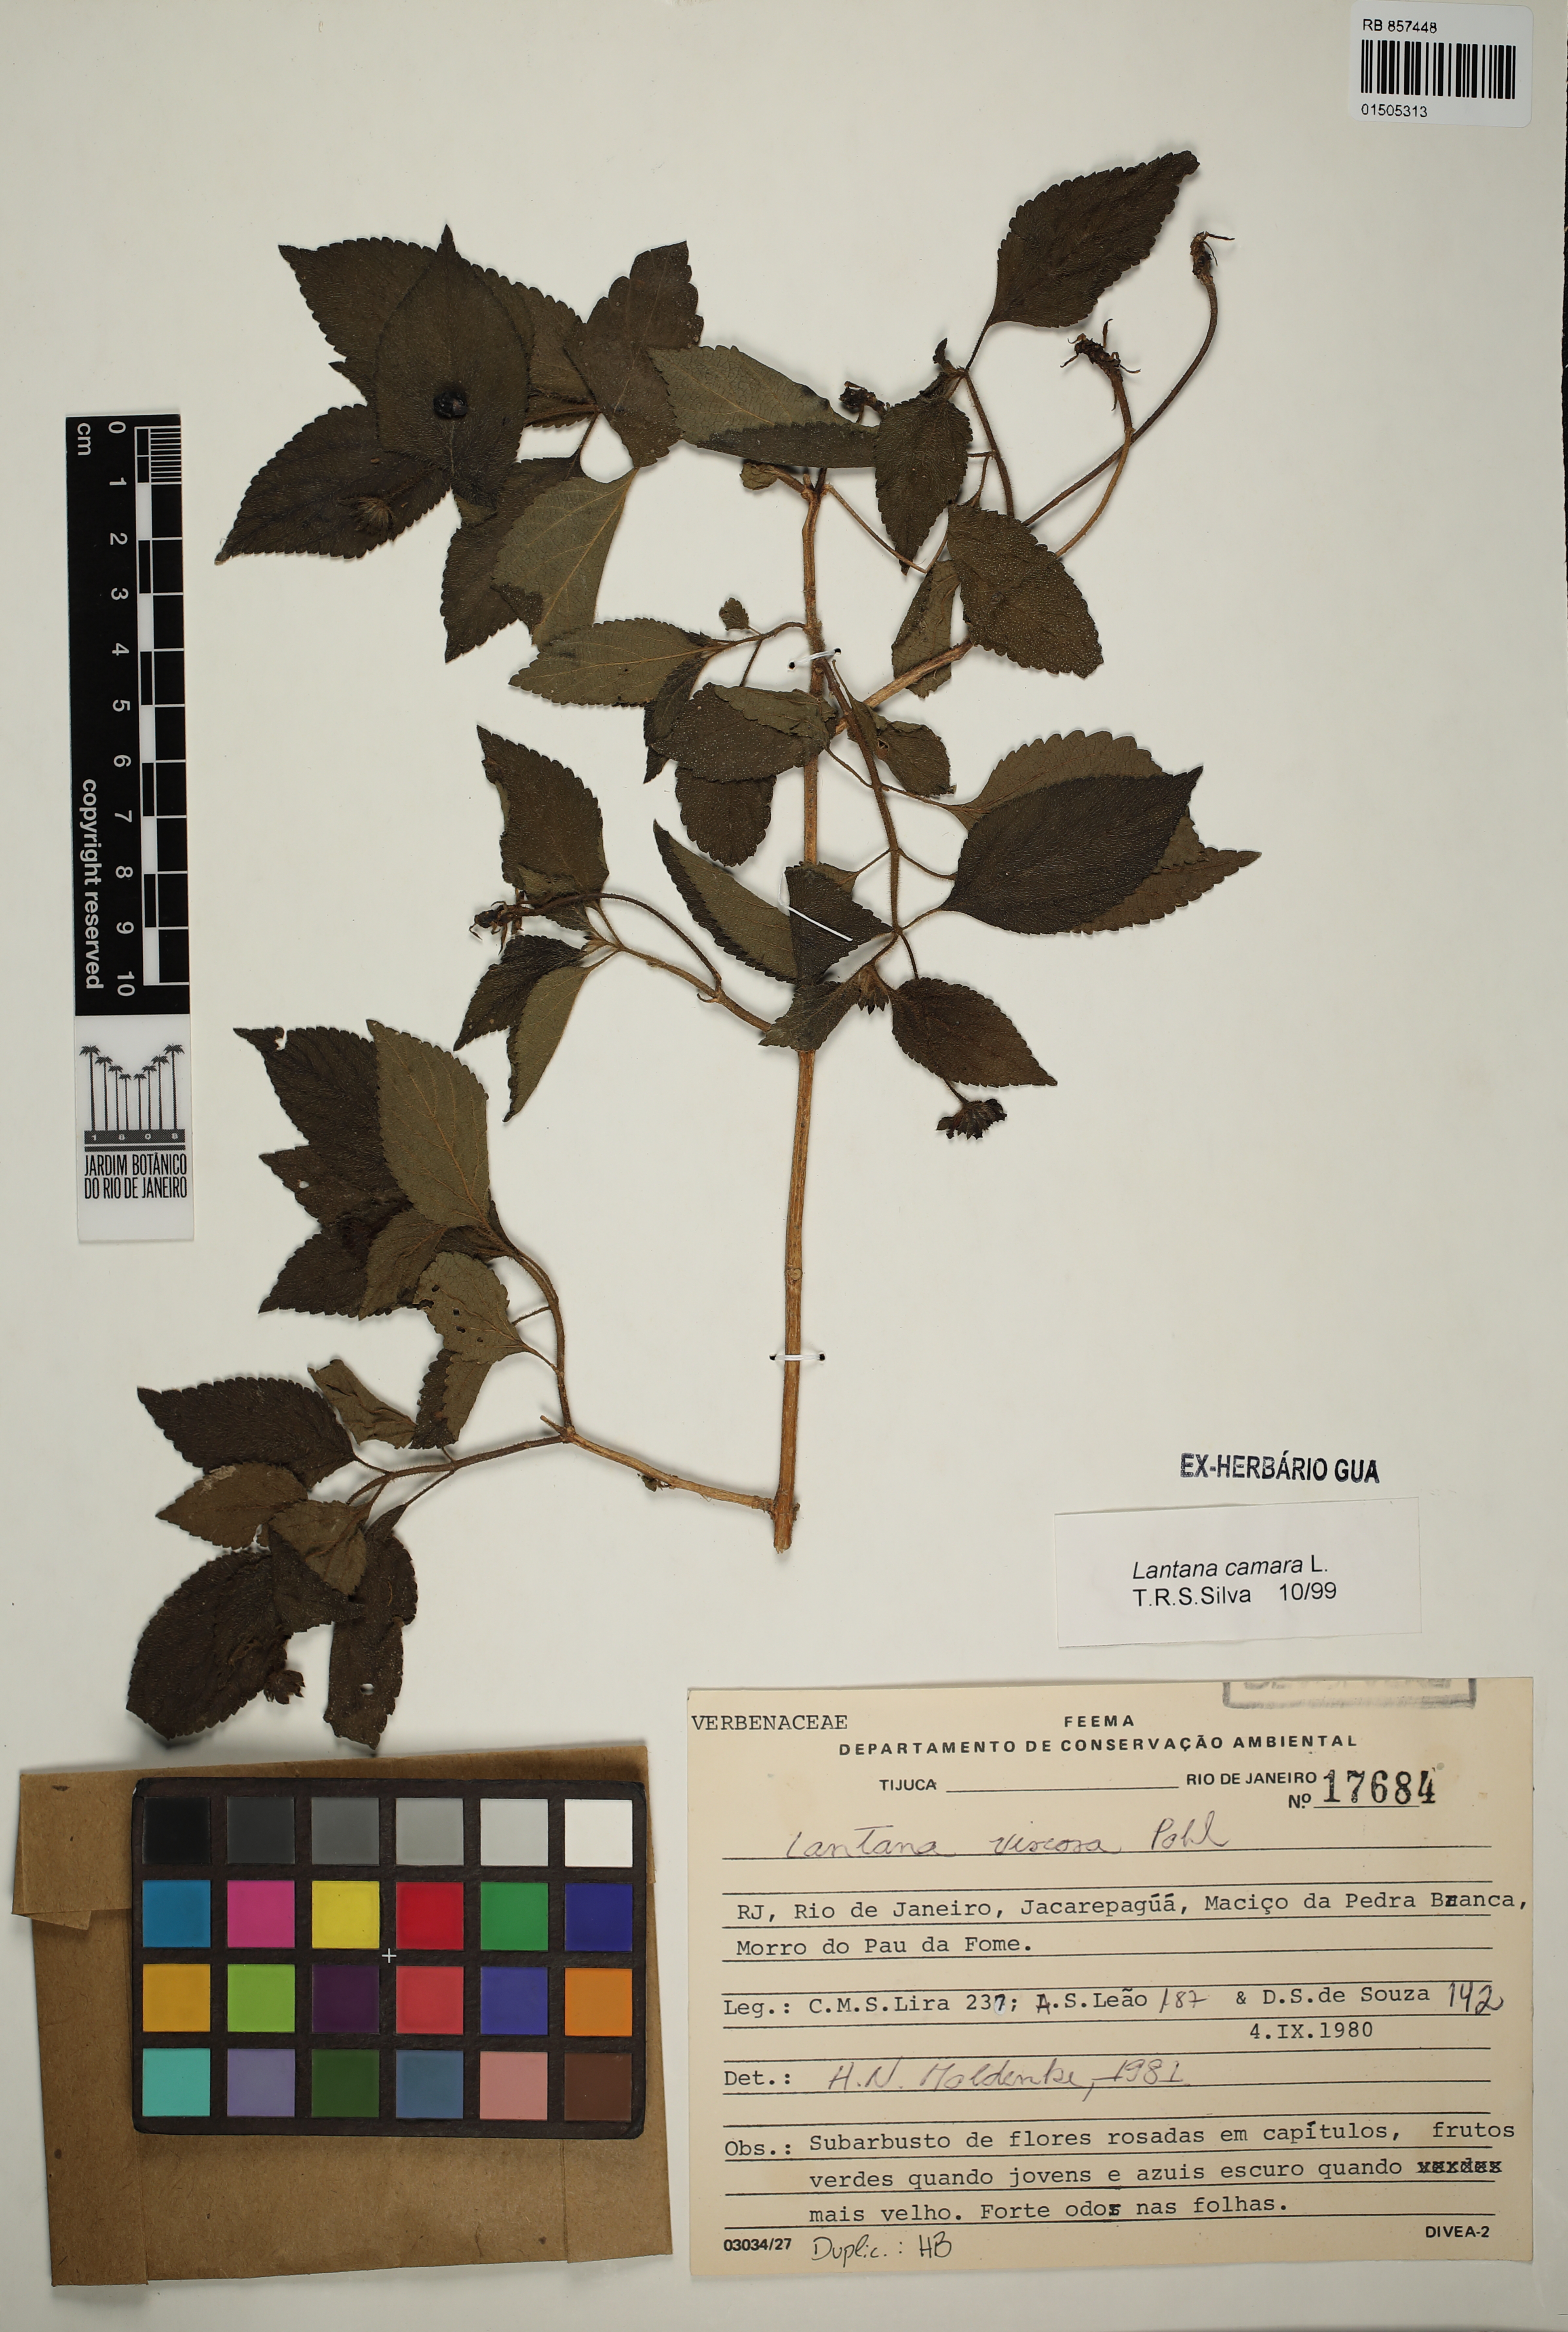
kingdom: Plantae
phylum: Tracheophyta
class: Magnoliopsida
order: Lamiales
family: Verbenaceae
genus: Lantana
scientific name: Lantana viscosa
